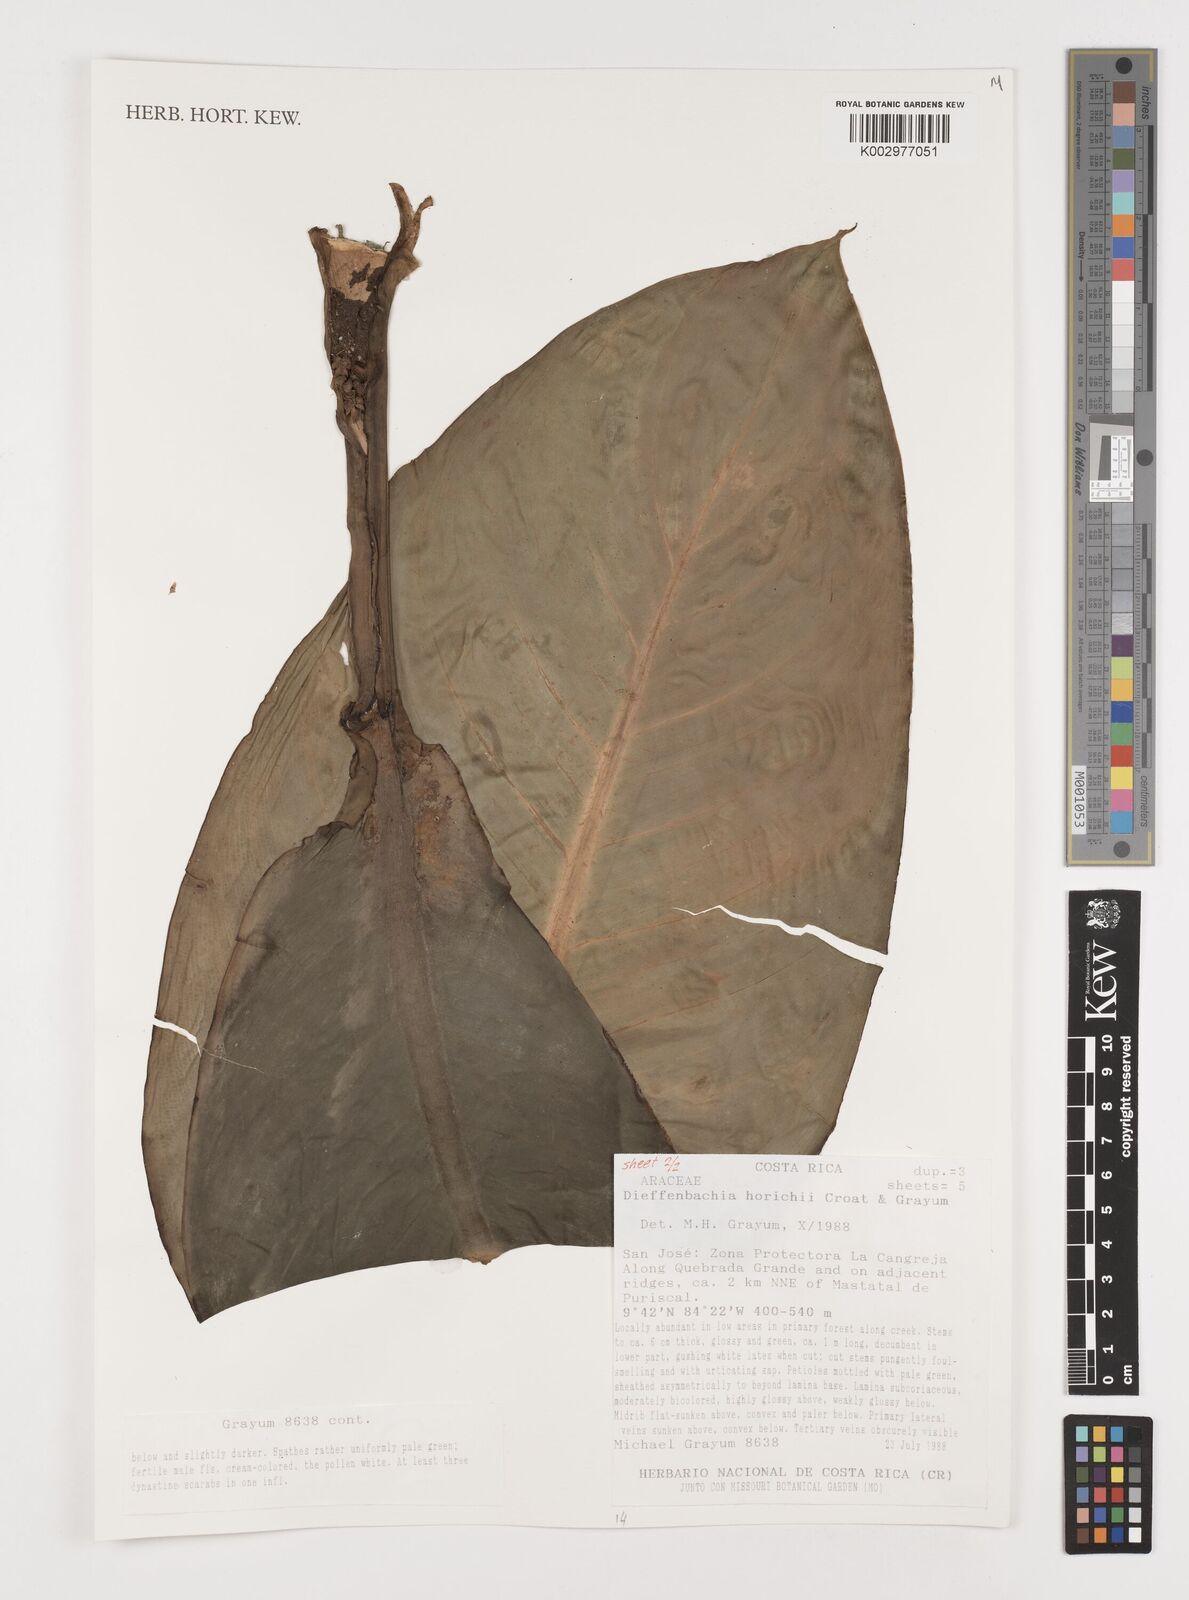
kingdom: Plantae
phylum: Tracheophyta
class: Liliopsida
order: Alismatales
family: Araceae
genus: Dieffenbachia
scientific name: Dieffenbachia horichii
